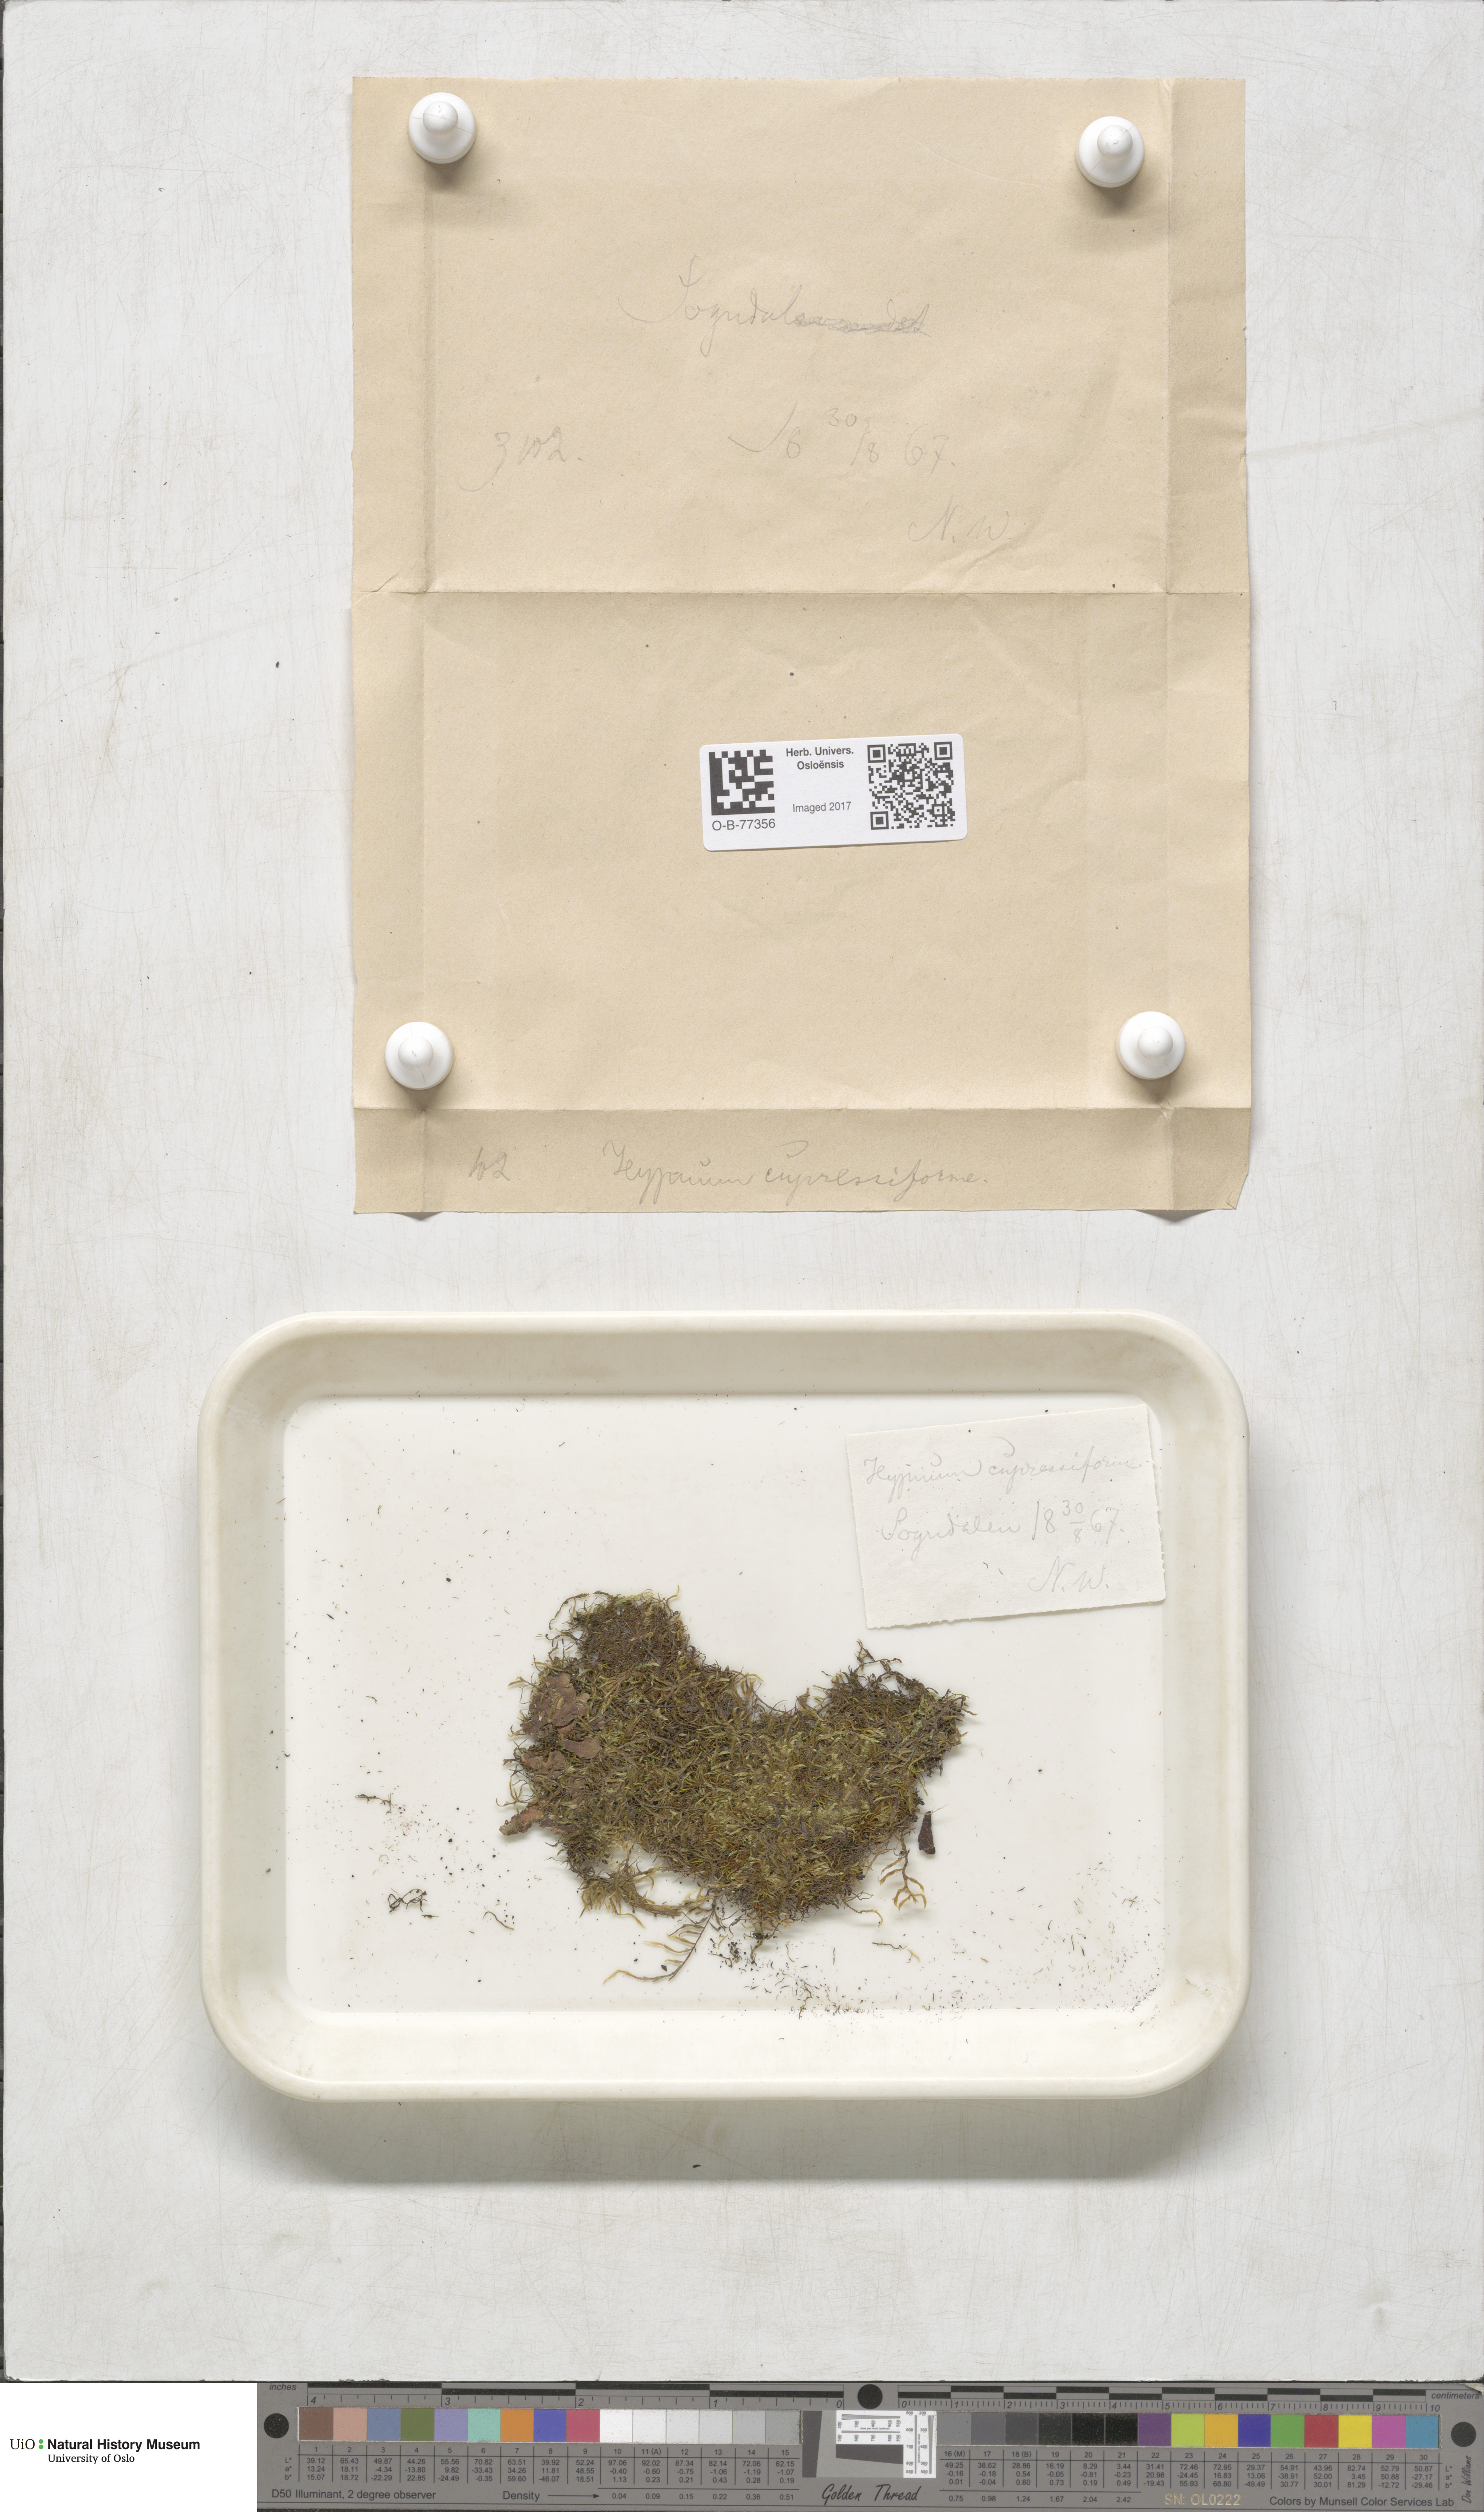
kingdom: Plantae
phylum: Bryophyta
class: Bryopsida
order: Hypnales
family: Hypnaceae
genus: Hypnum
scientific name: Hypnum cupressiforme
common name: Cypress-leaved plait-moss
